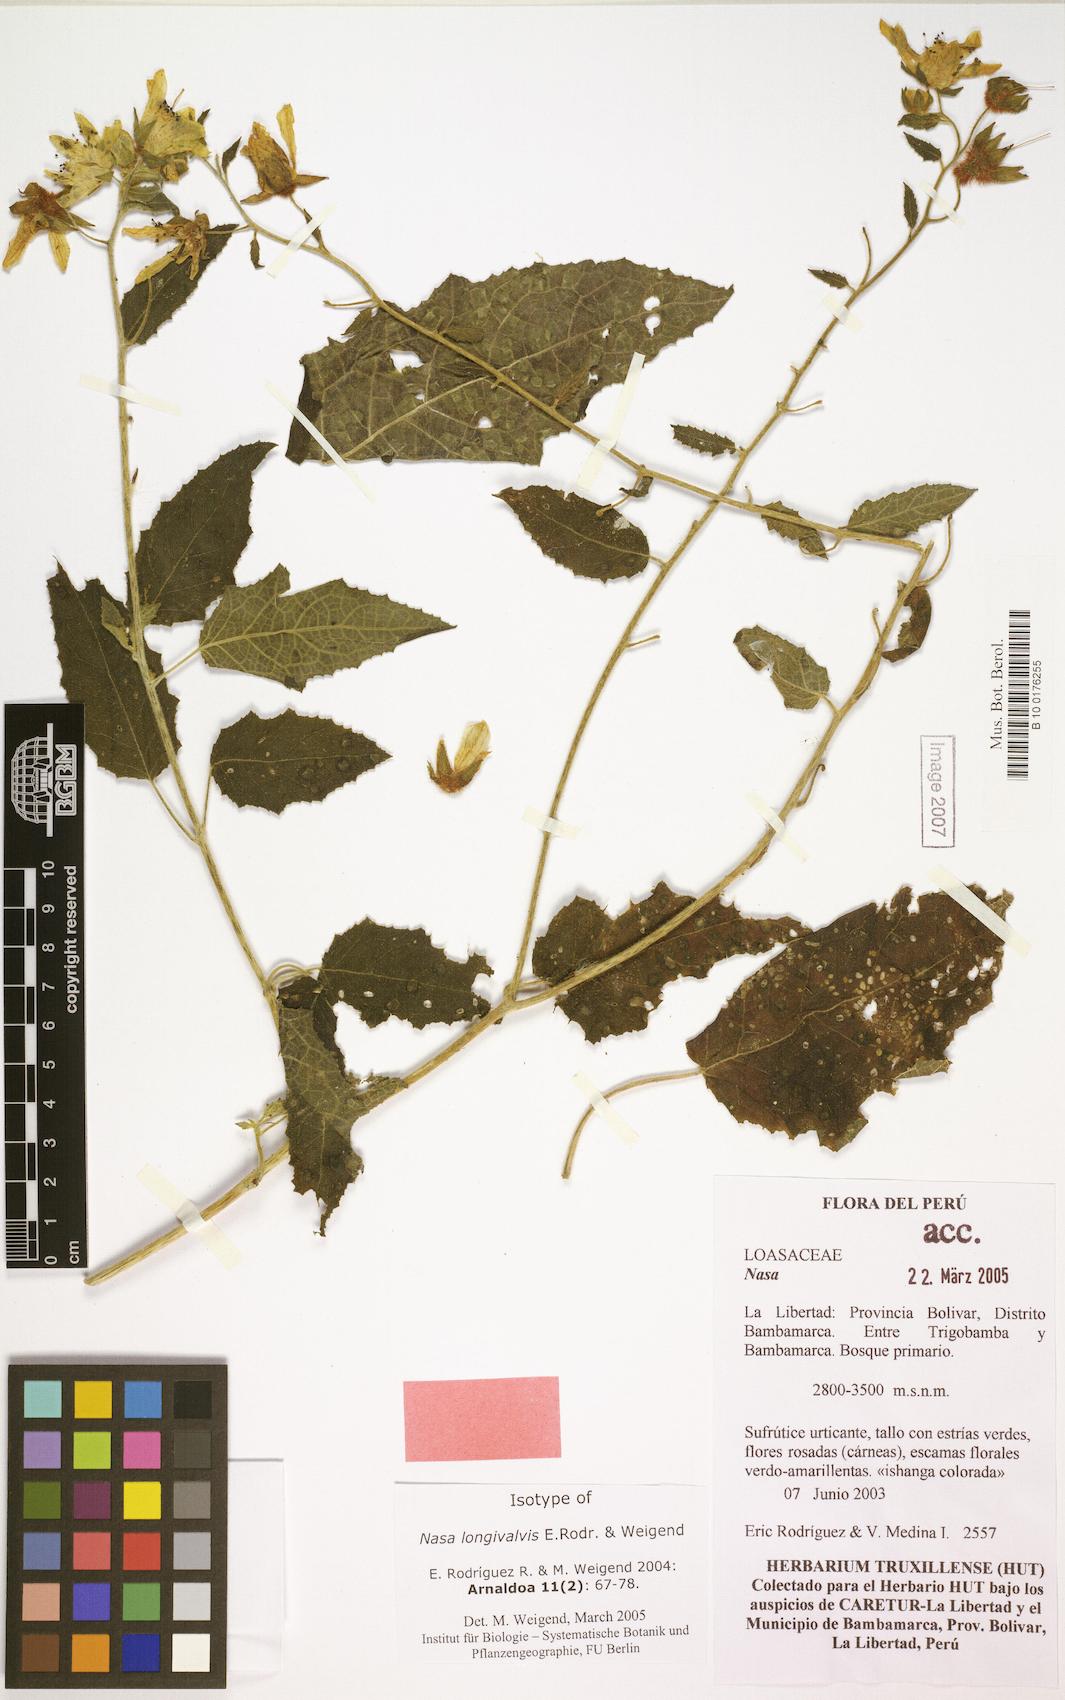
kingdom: Plantae
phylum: Tracheophyta
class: Magnoliopsida
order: Cornales
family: Loasaceae
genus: Nasa
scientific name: Nasa longivalvis
